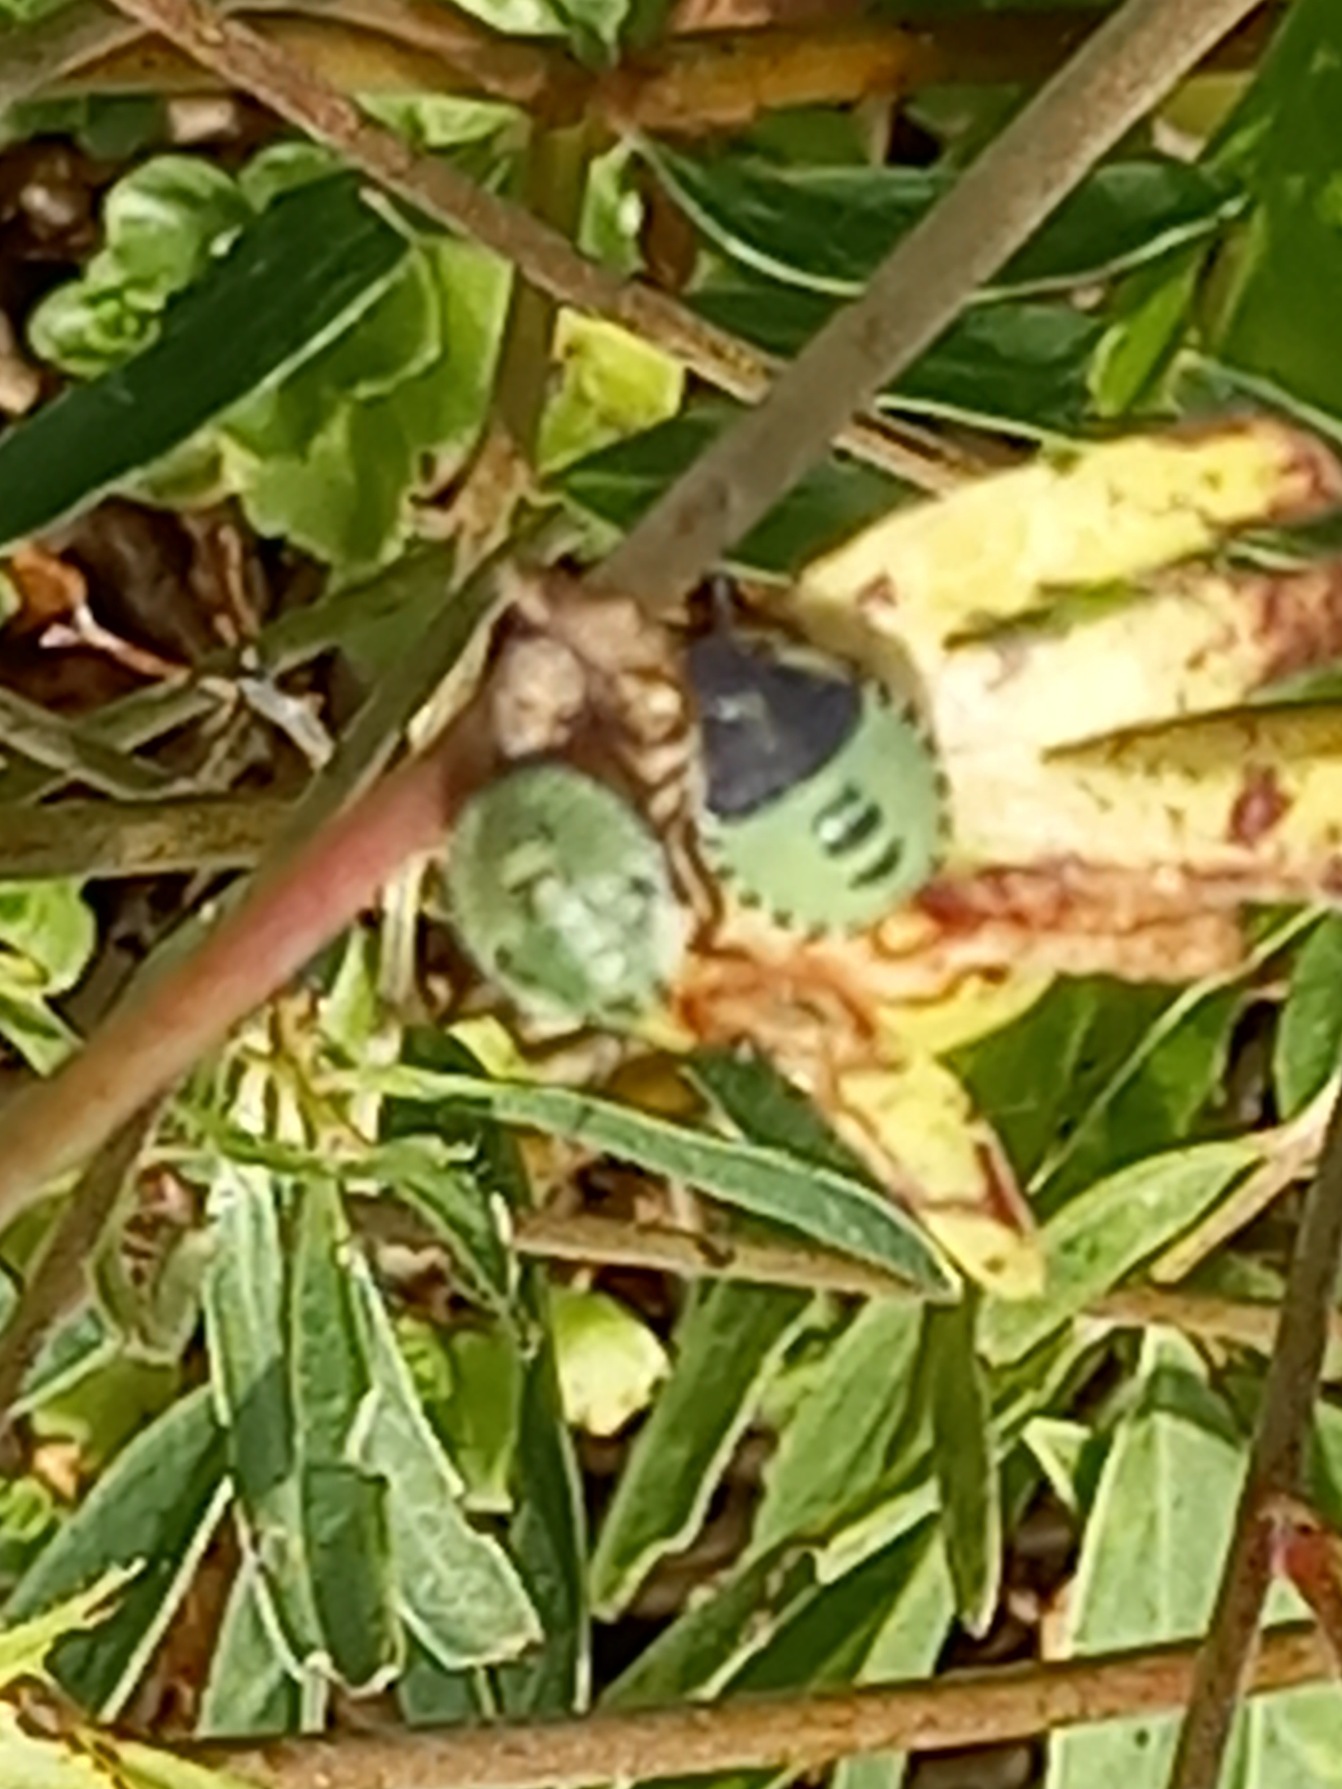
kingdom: Animalia
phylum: Arthropoda
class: Insecta
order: Hemiptera
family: Pentatomidae
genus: Palomena
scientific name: Palomena prasina
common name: Grøn bredtæge
